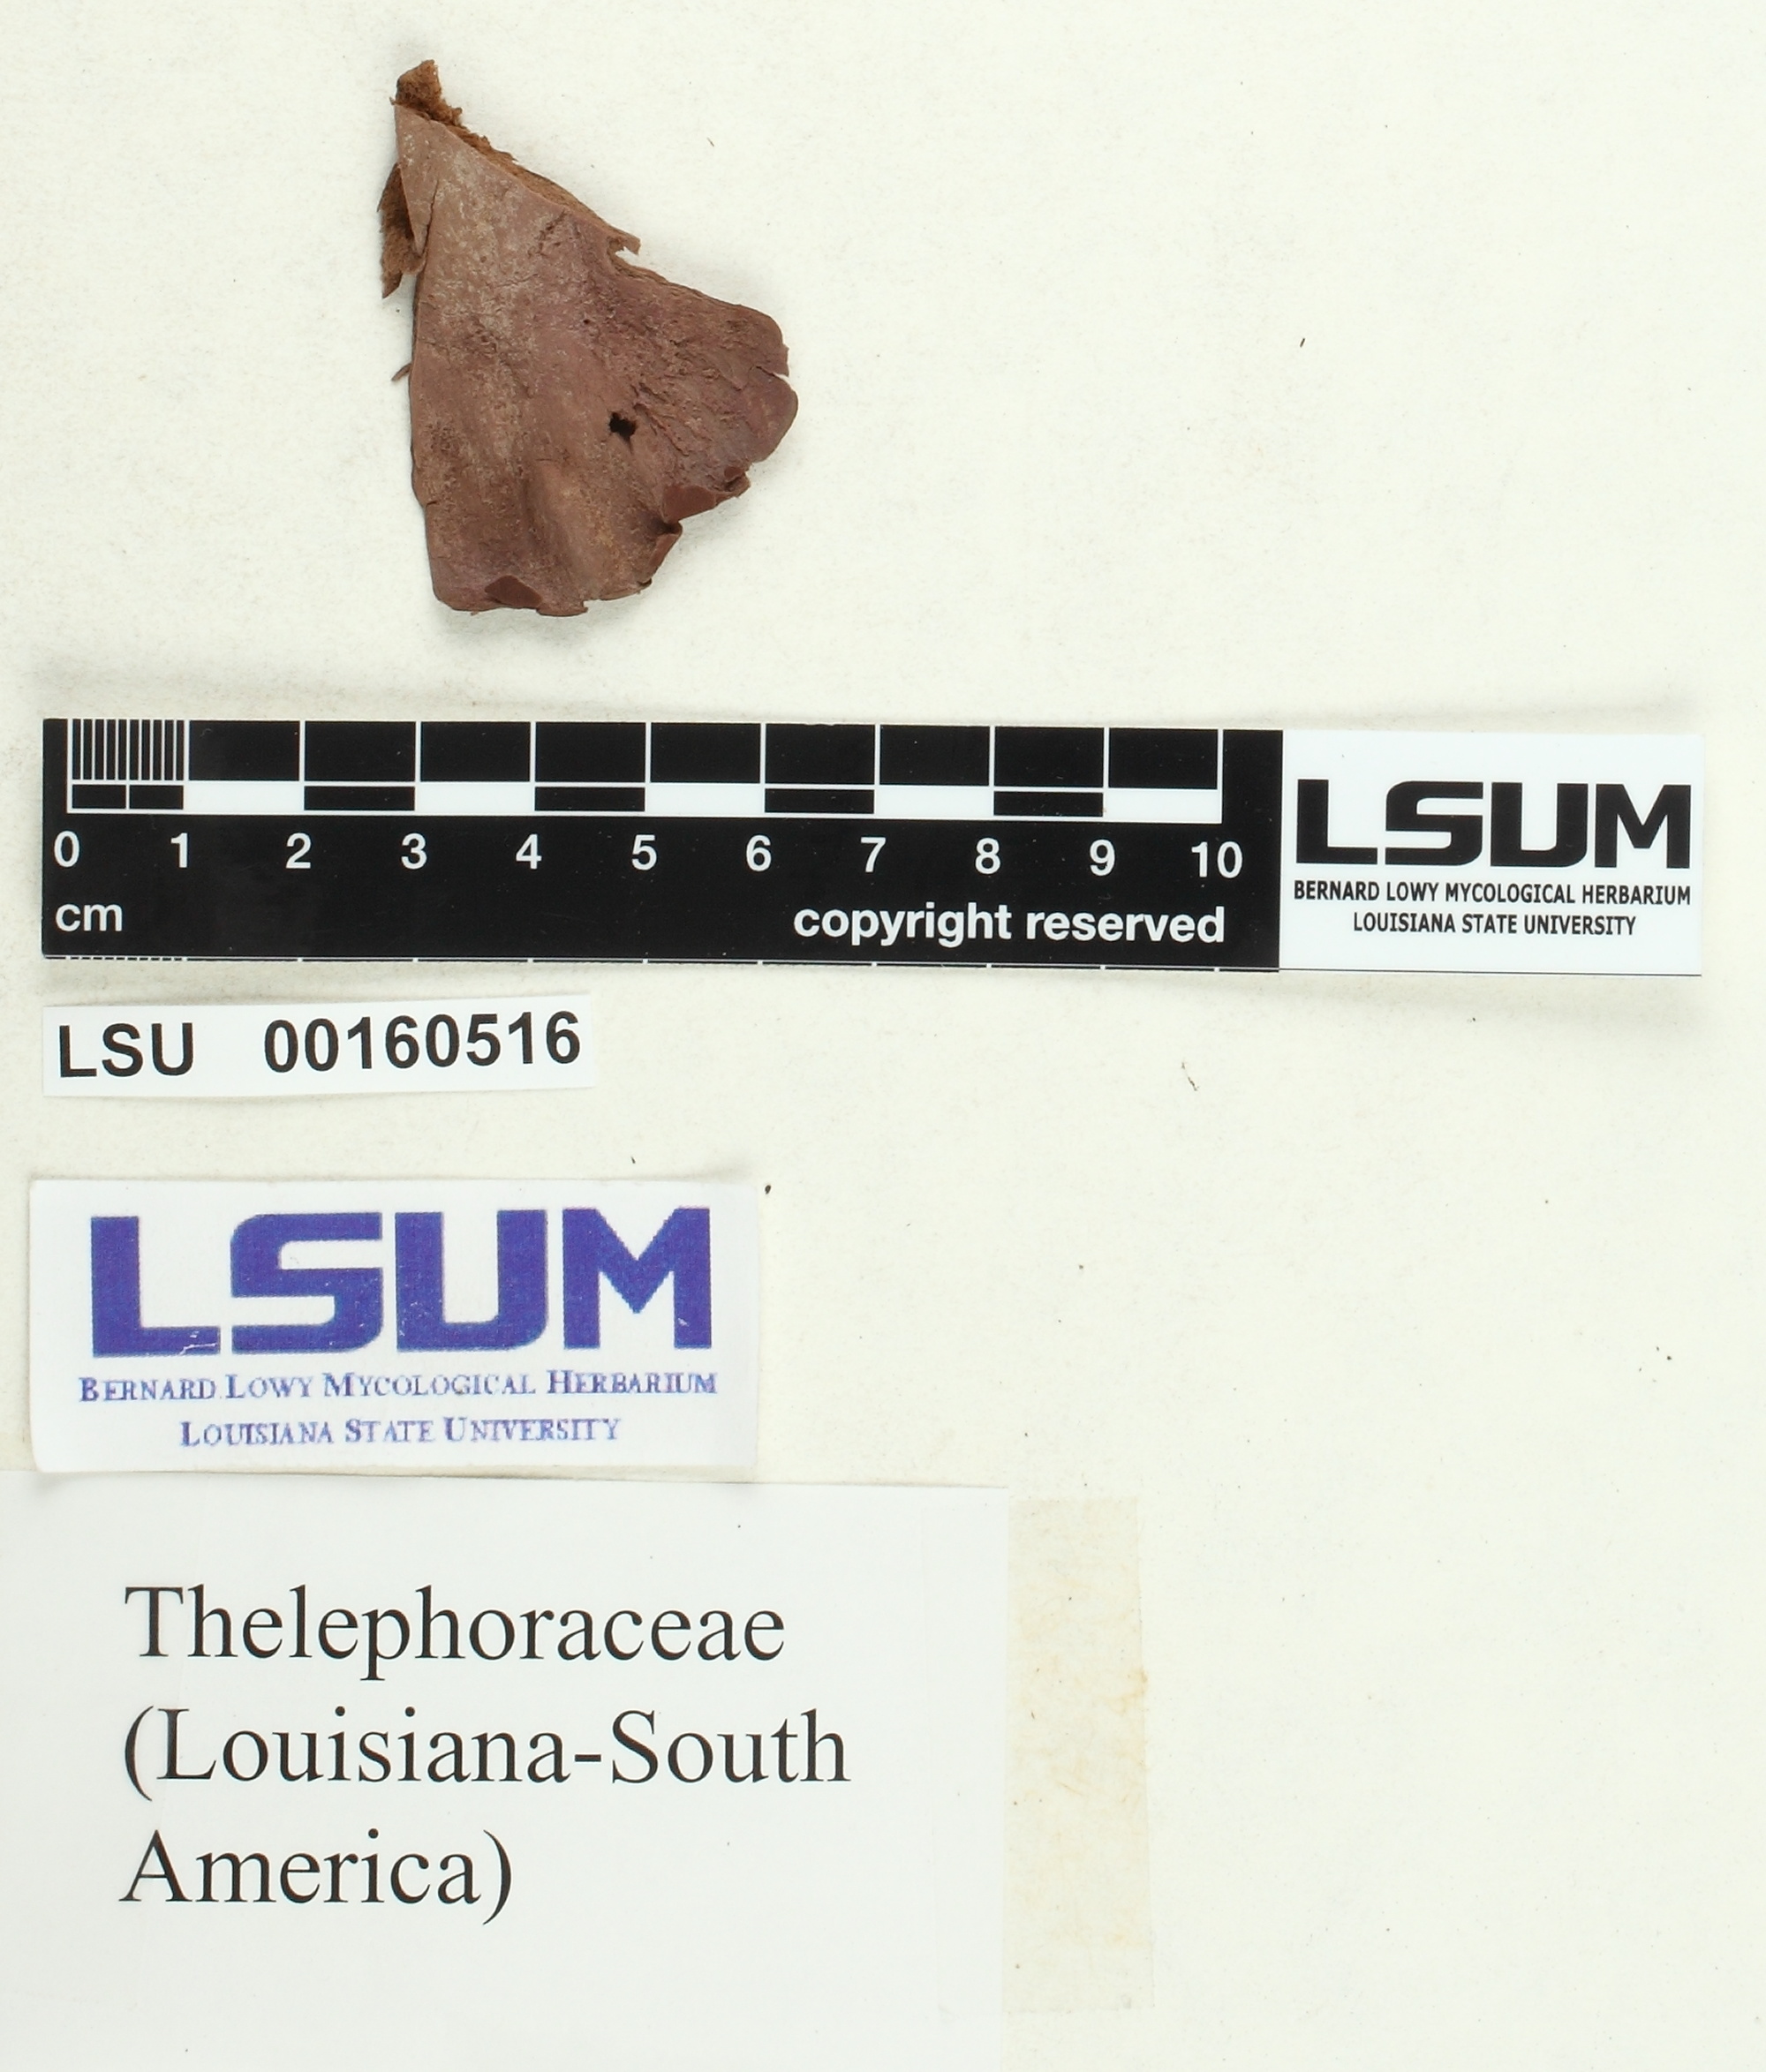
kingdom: Fungi
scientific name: Fungi
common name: Fungi
